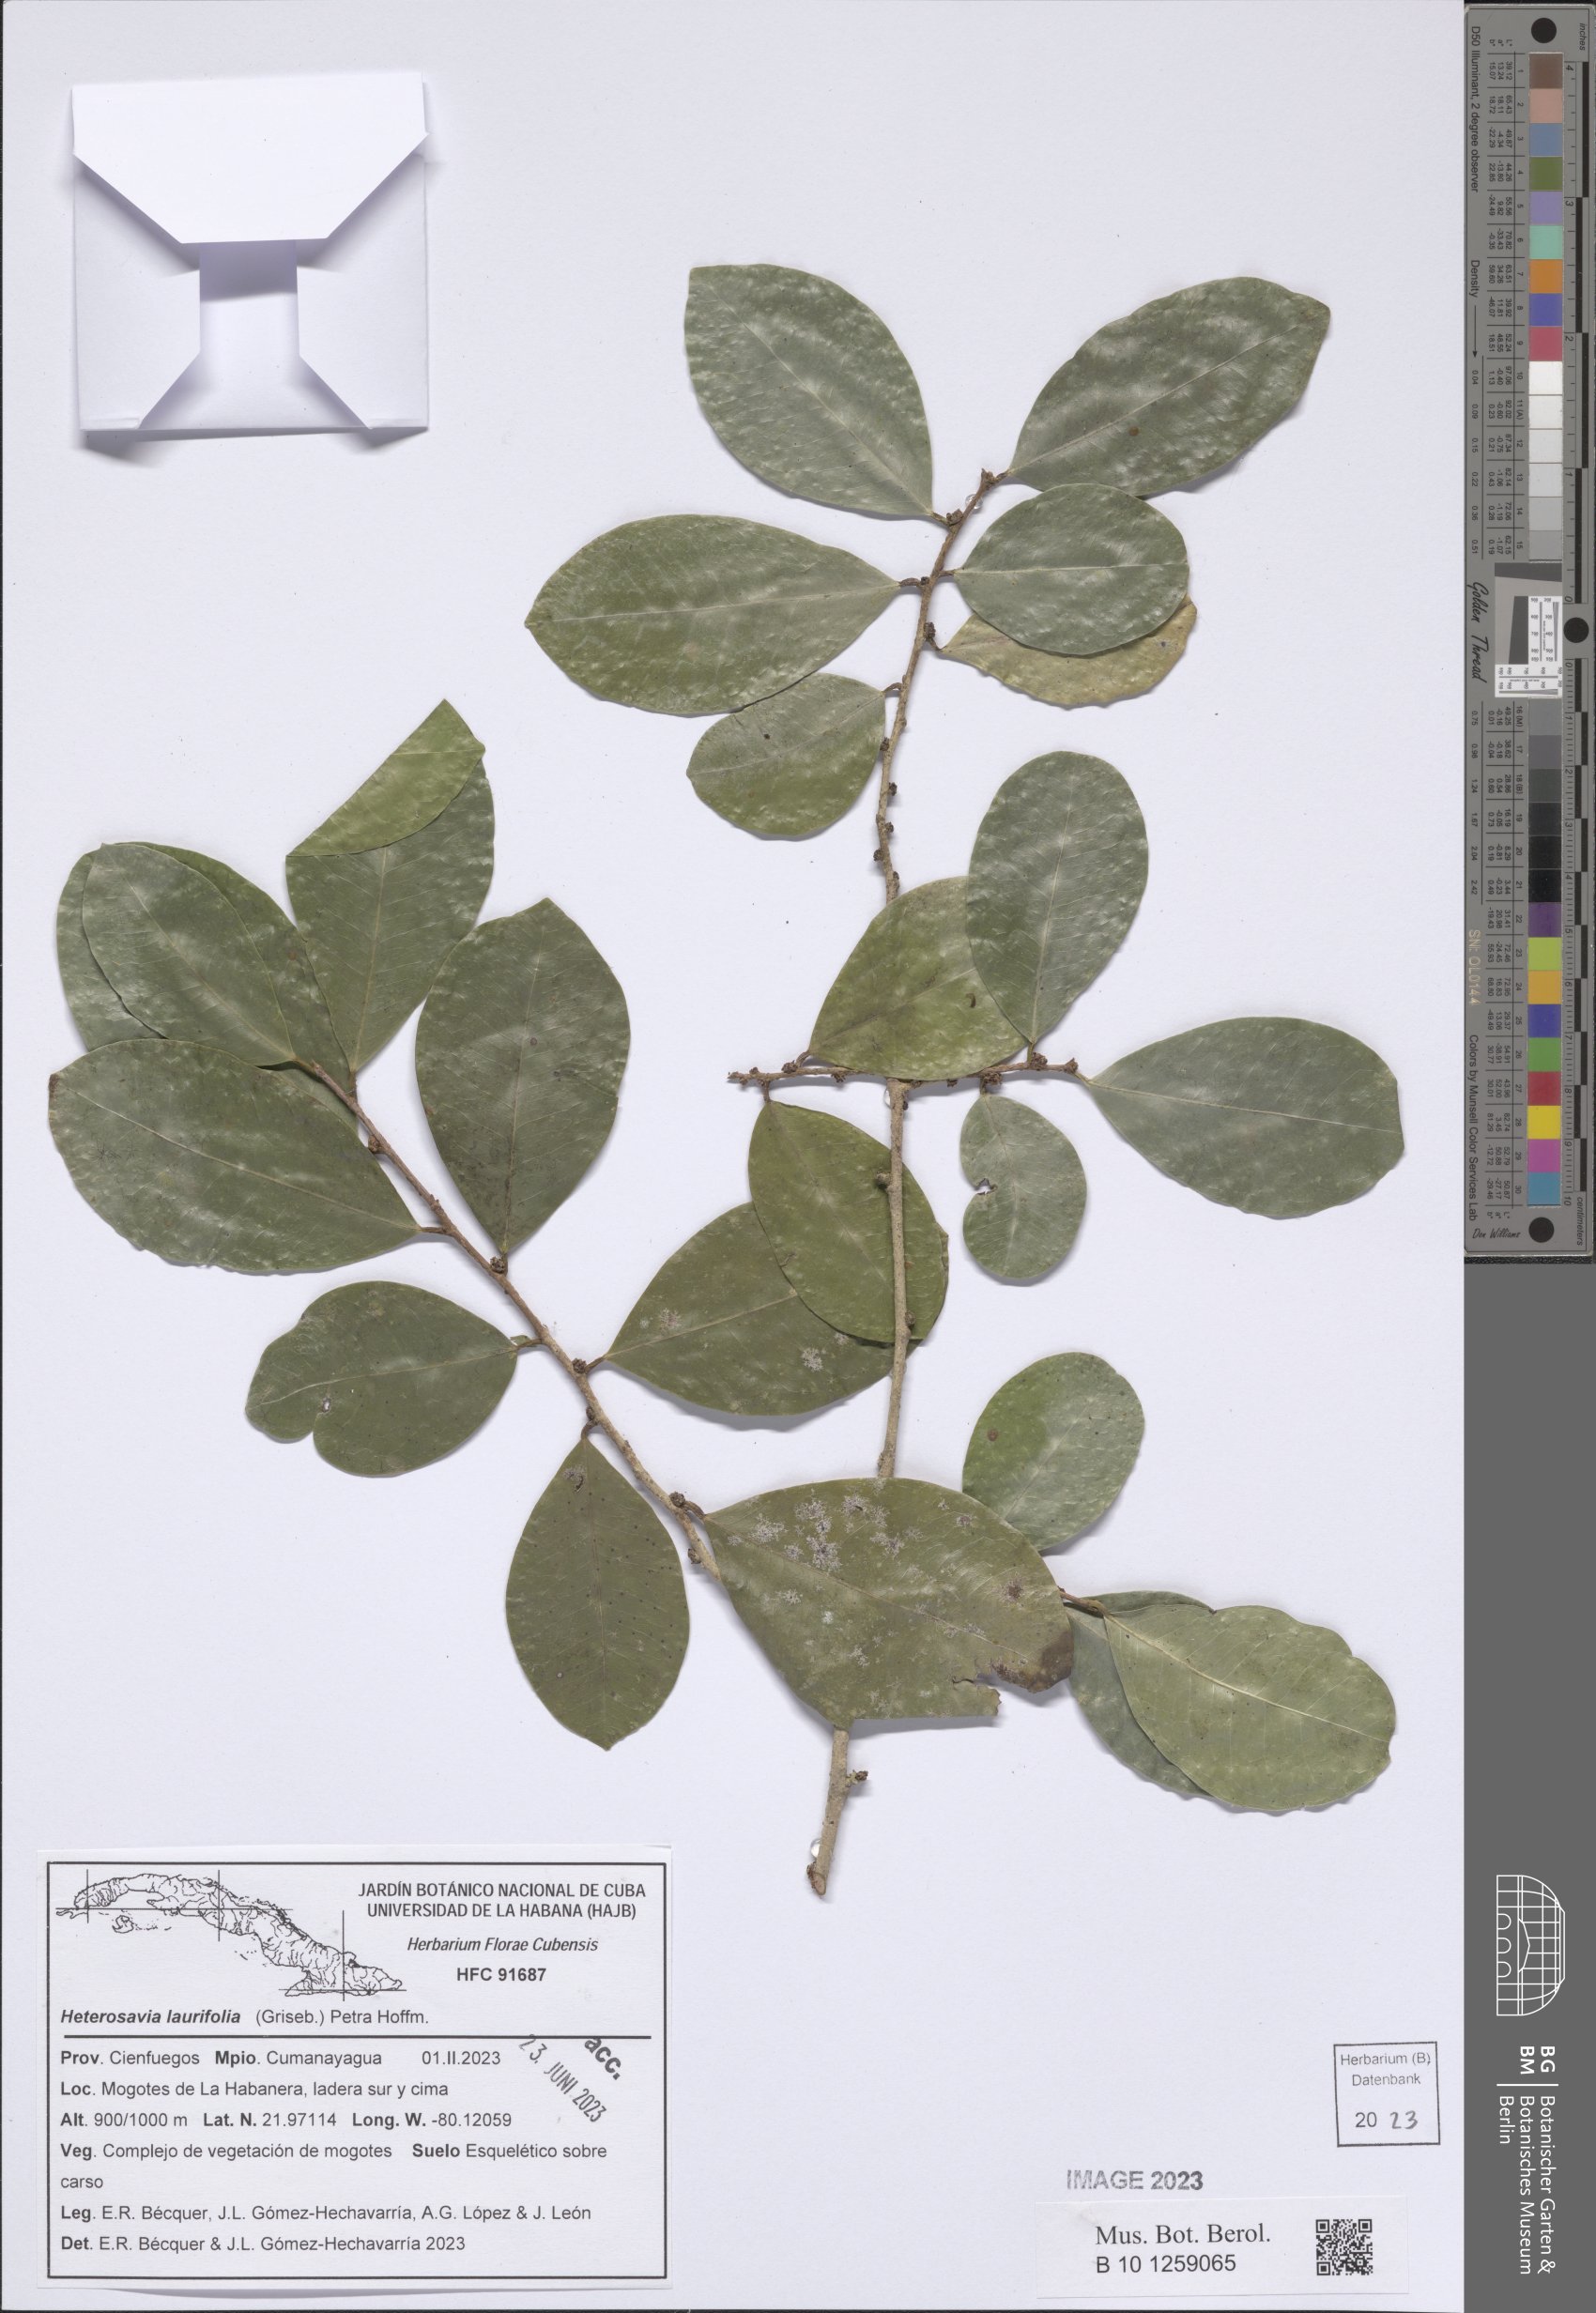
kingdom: Plantae
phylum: Tracheophyta
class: Magnoliopsida
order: Malpighiales
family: Phyllanthaceae
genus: Heterosavia
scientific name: Heterosavia laurifolia
